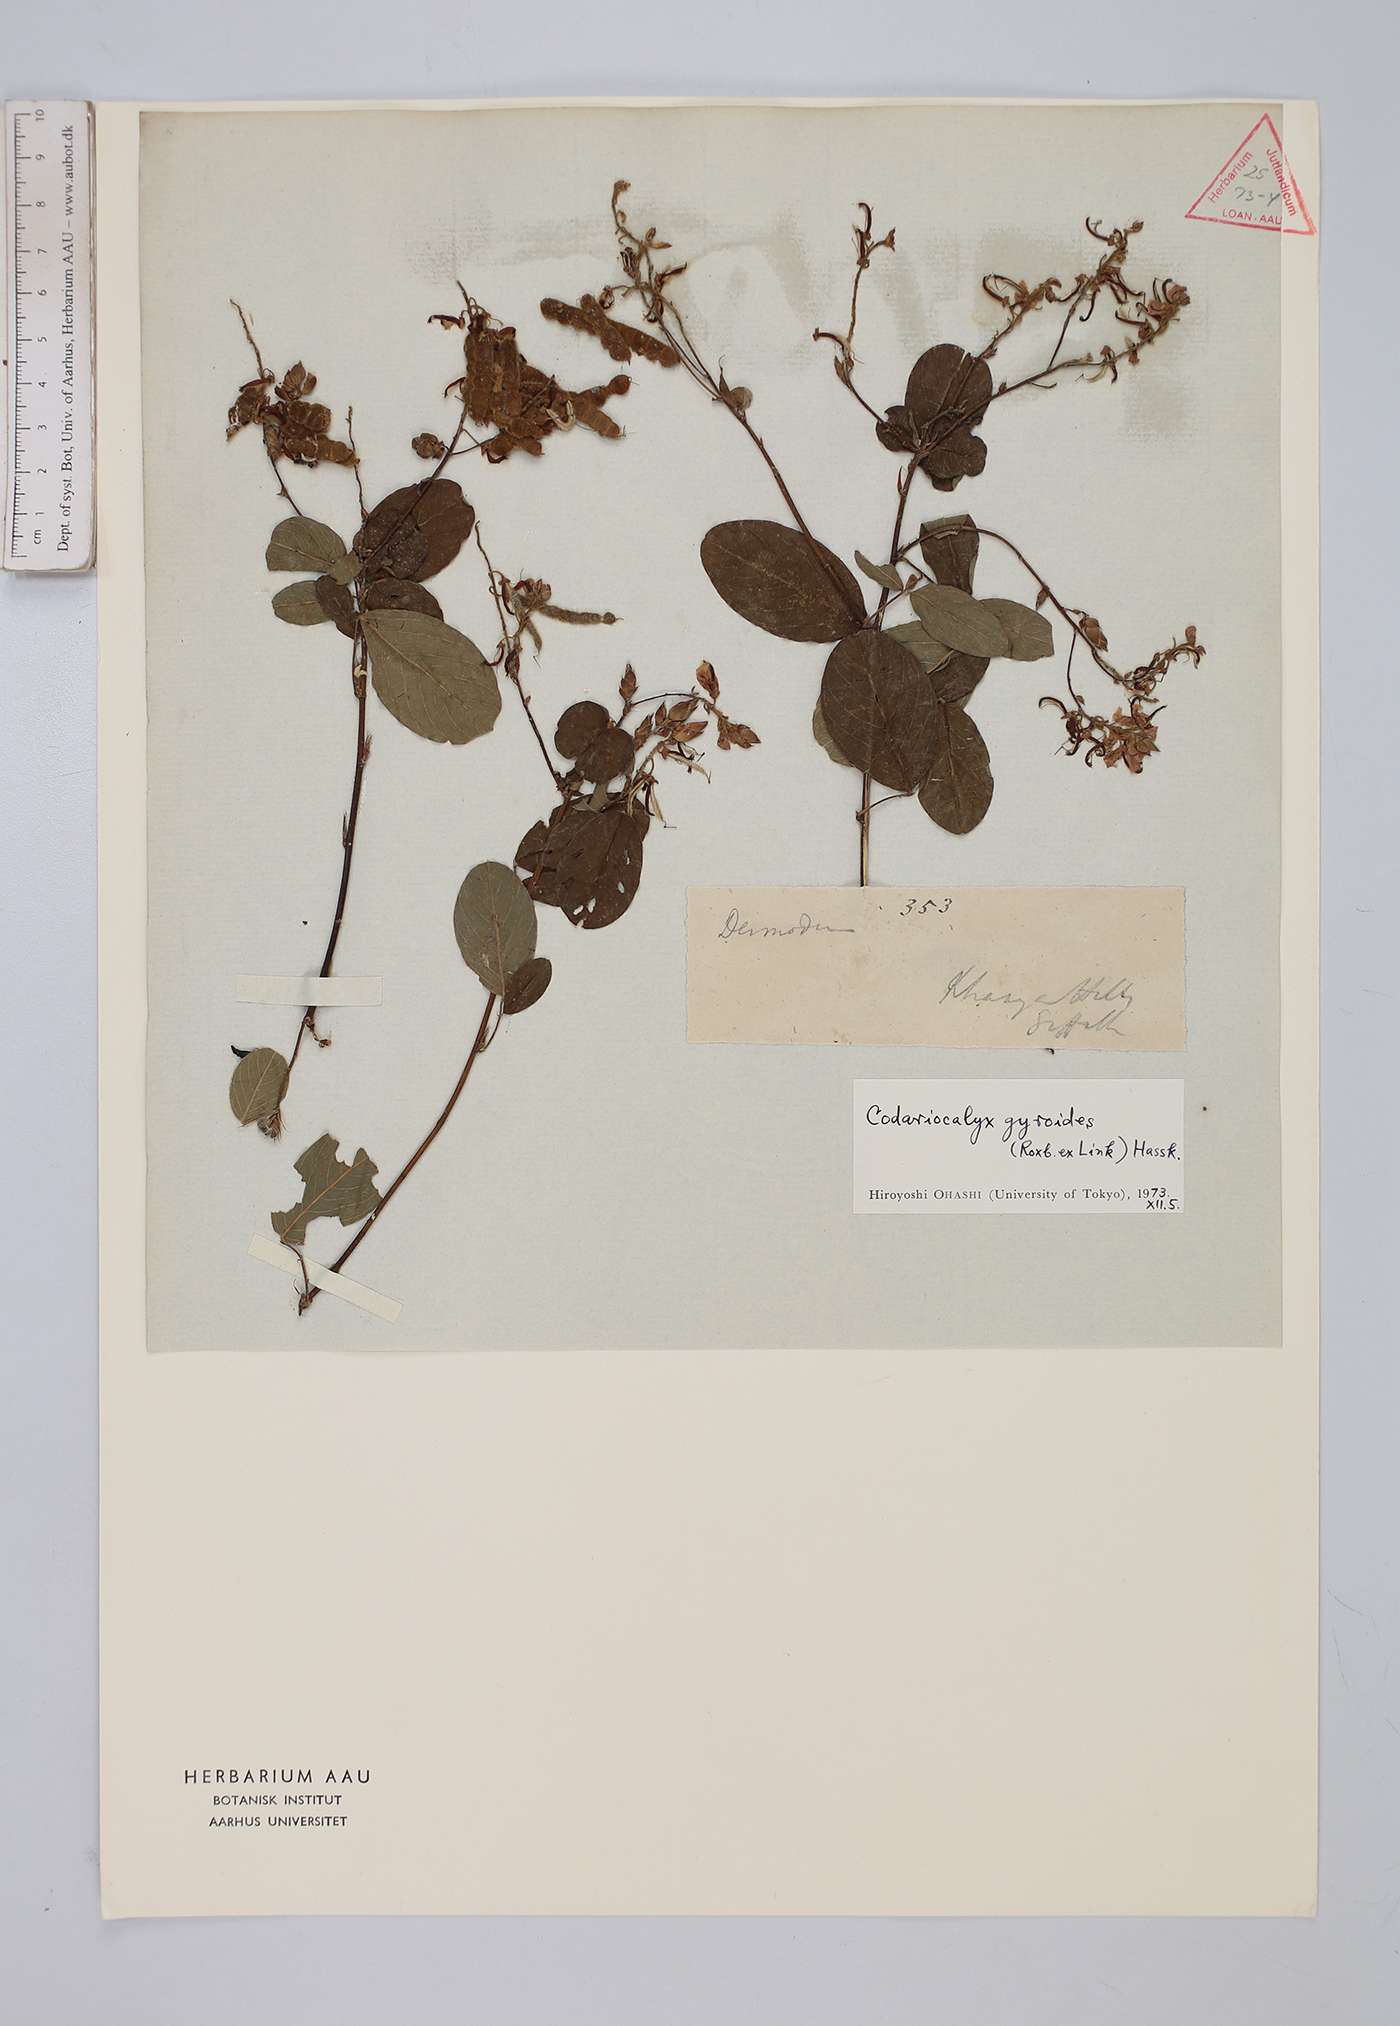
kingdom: Plantae
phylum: Tracheophyta
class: Magnoliopsida
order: Fabales
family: Fabaceae
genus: Codariocalyx
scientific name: Codariocalyx gyroides
